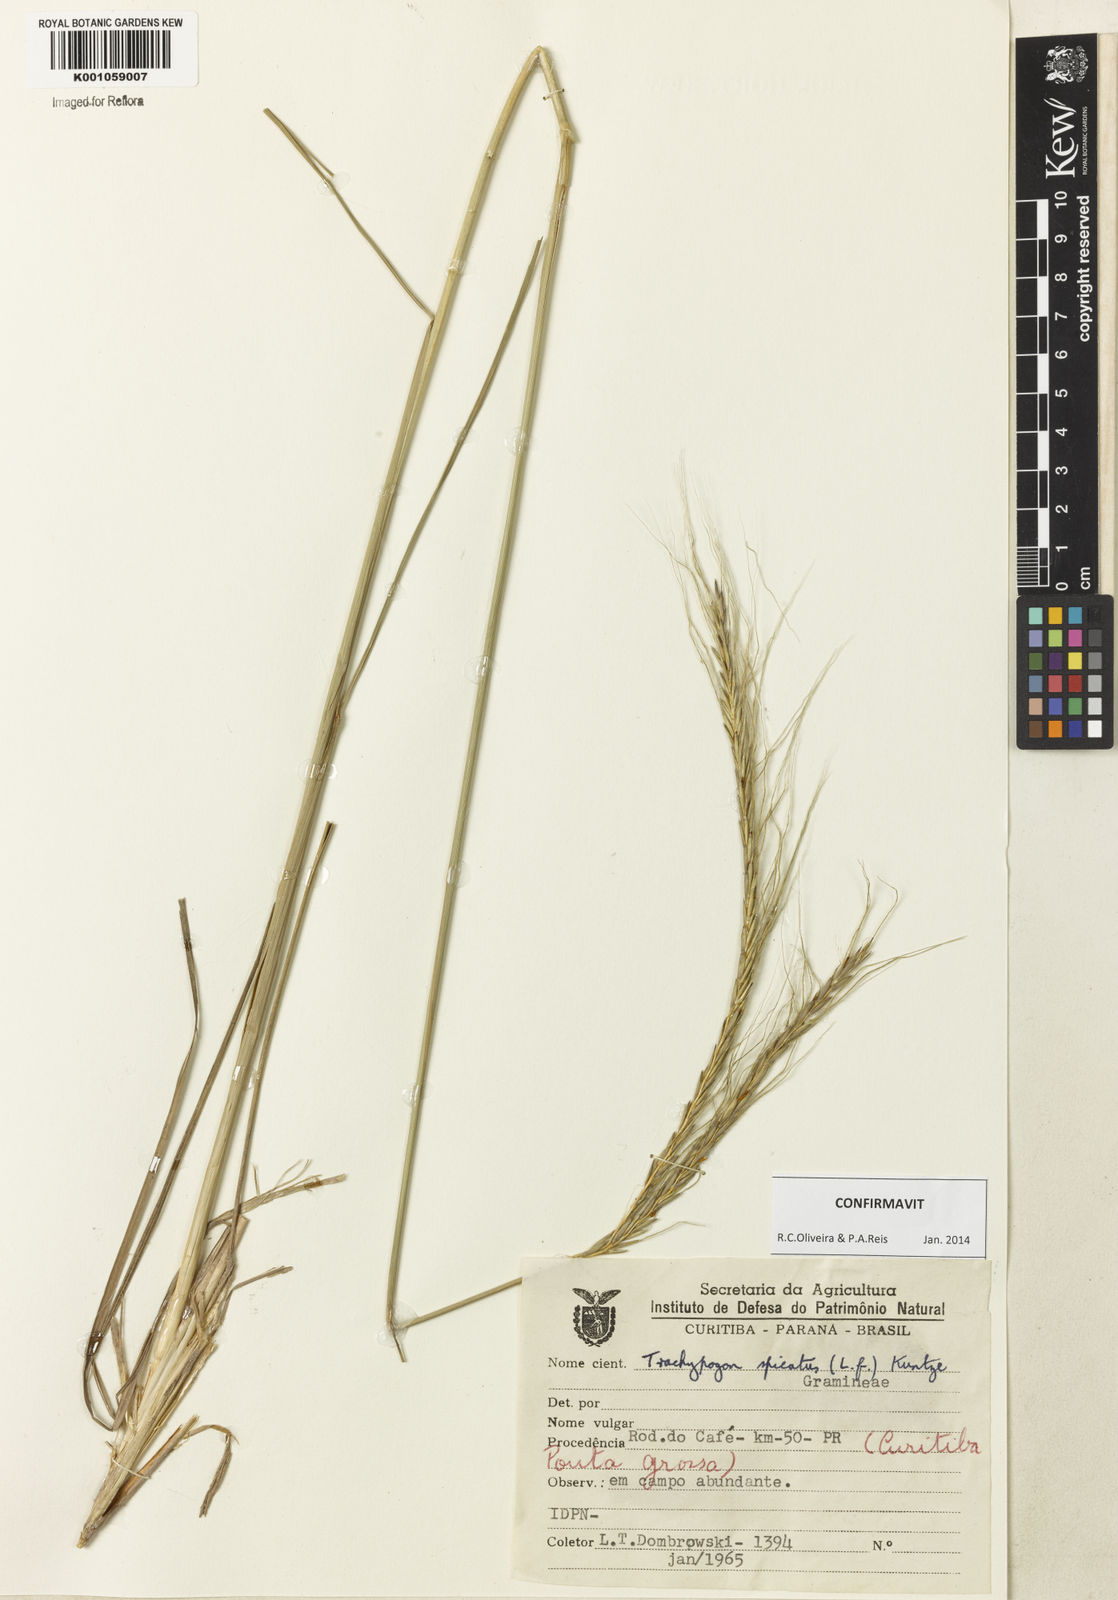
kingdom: Plantae
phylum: Tracheophyta
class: Liliopsida
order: Poales
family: Poaceae
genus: Trachypogon
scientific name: Trachypogon spicatus
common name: Crinkle-awn
